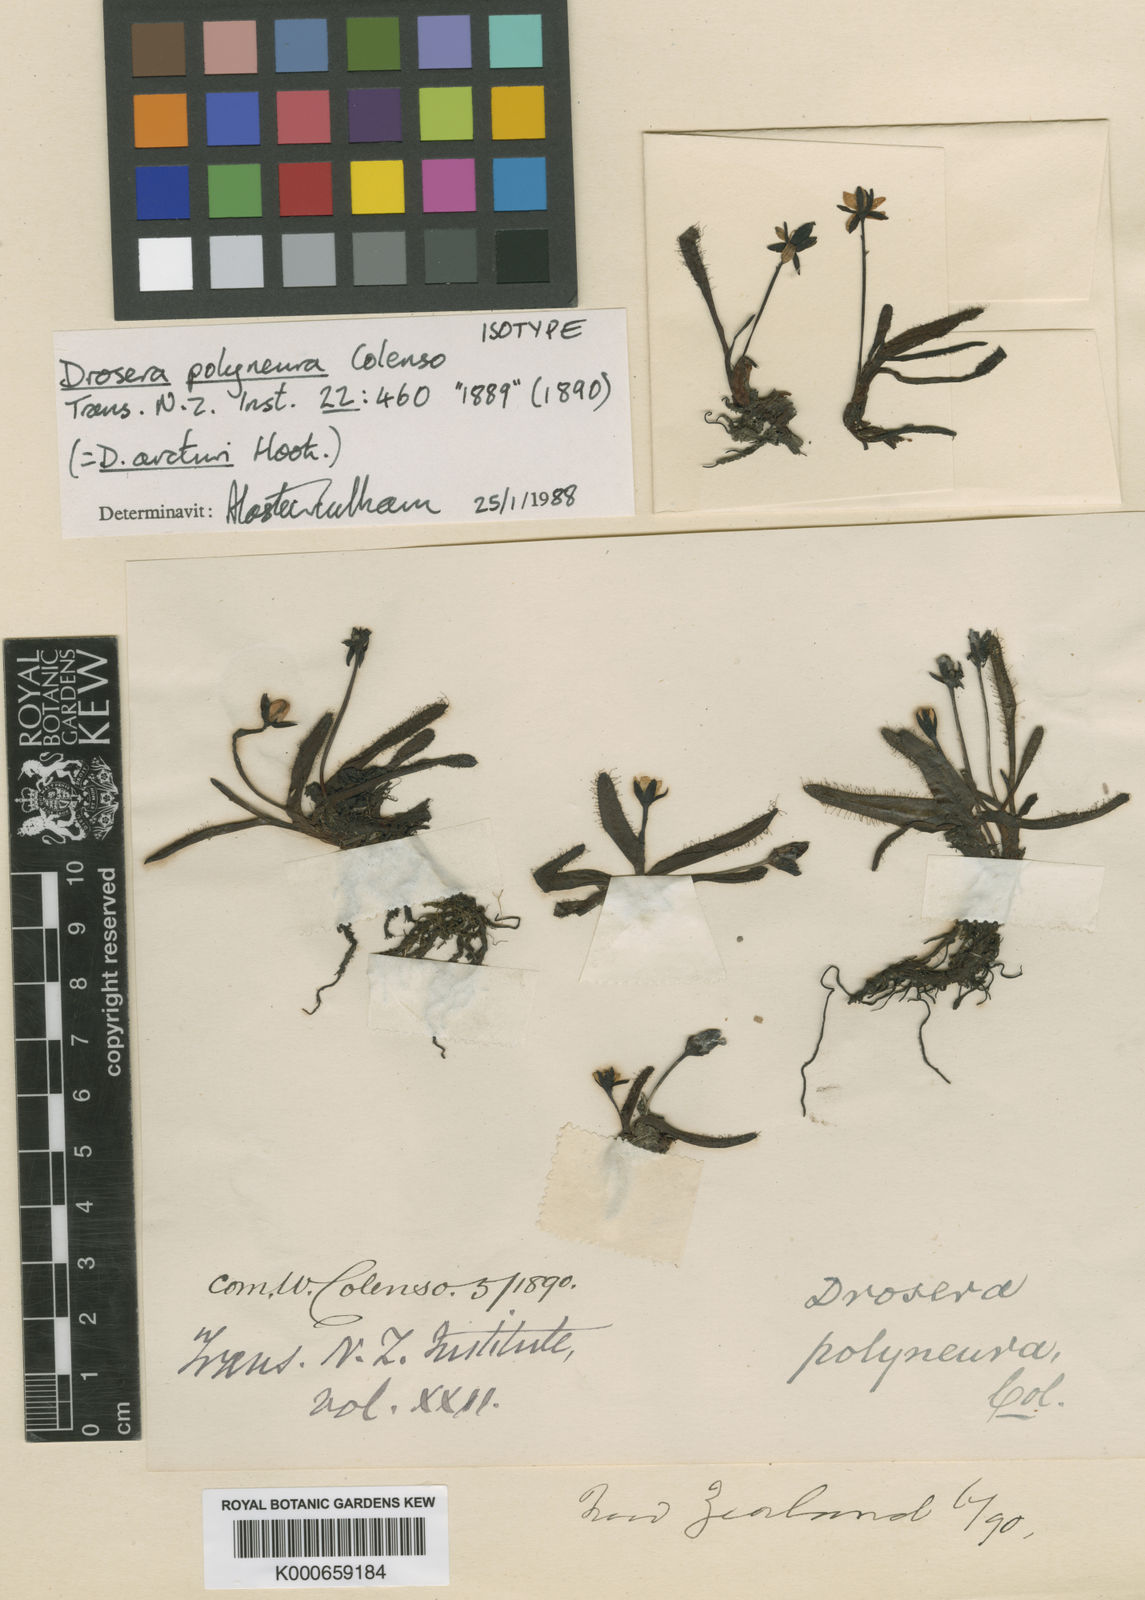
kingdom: Plantae
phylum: Tracheophyta
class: Magnoliopsida
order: Caryophyllales
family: Droseraceae
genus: Drosera
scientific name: Drosera arcturi
